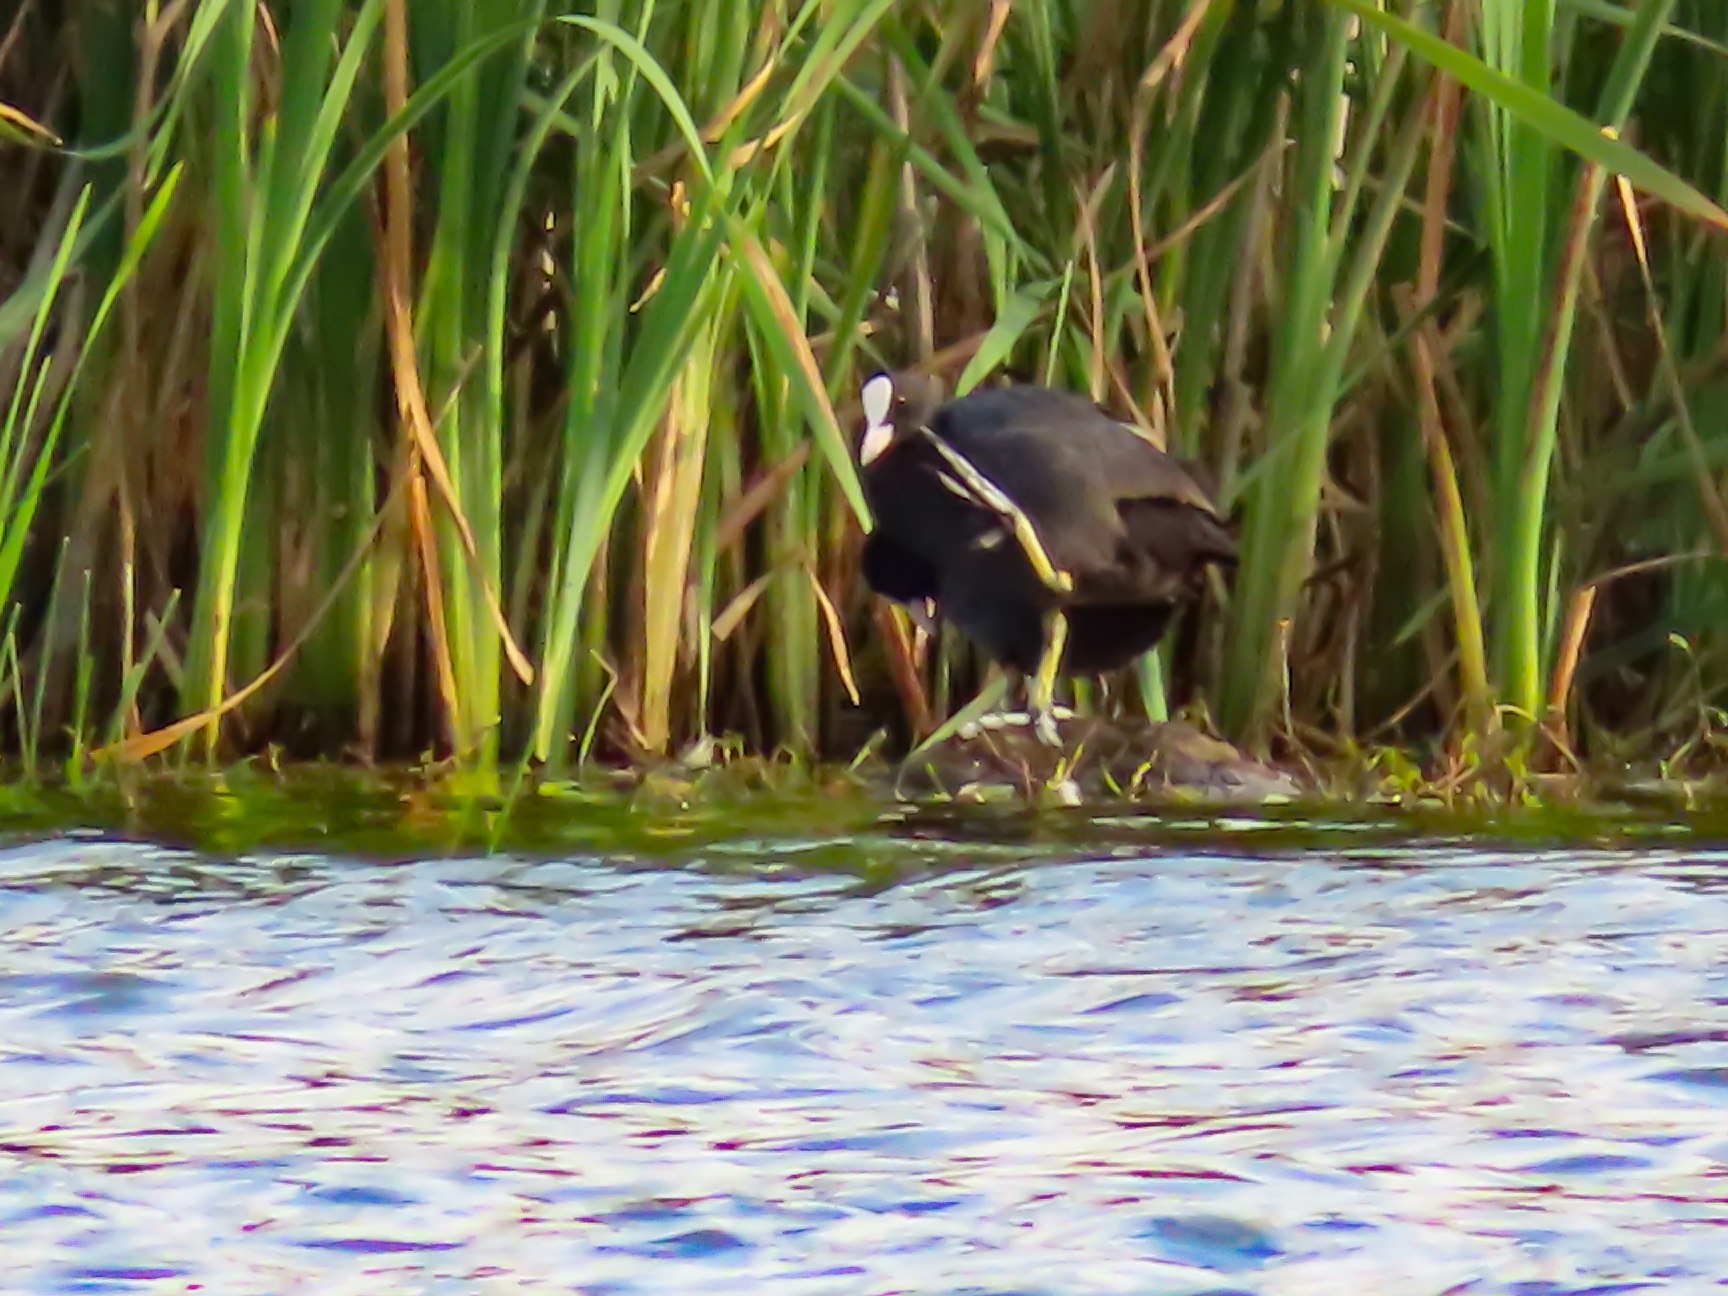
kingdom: Animalia
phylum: Chordata
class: Aves
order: Gruiformes
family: Rallidae
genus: Fulica
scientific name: Fulica atra
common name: Blishøne
